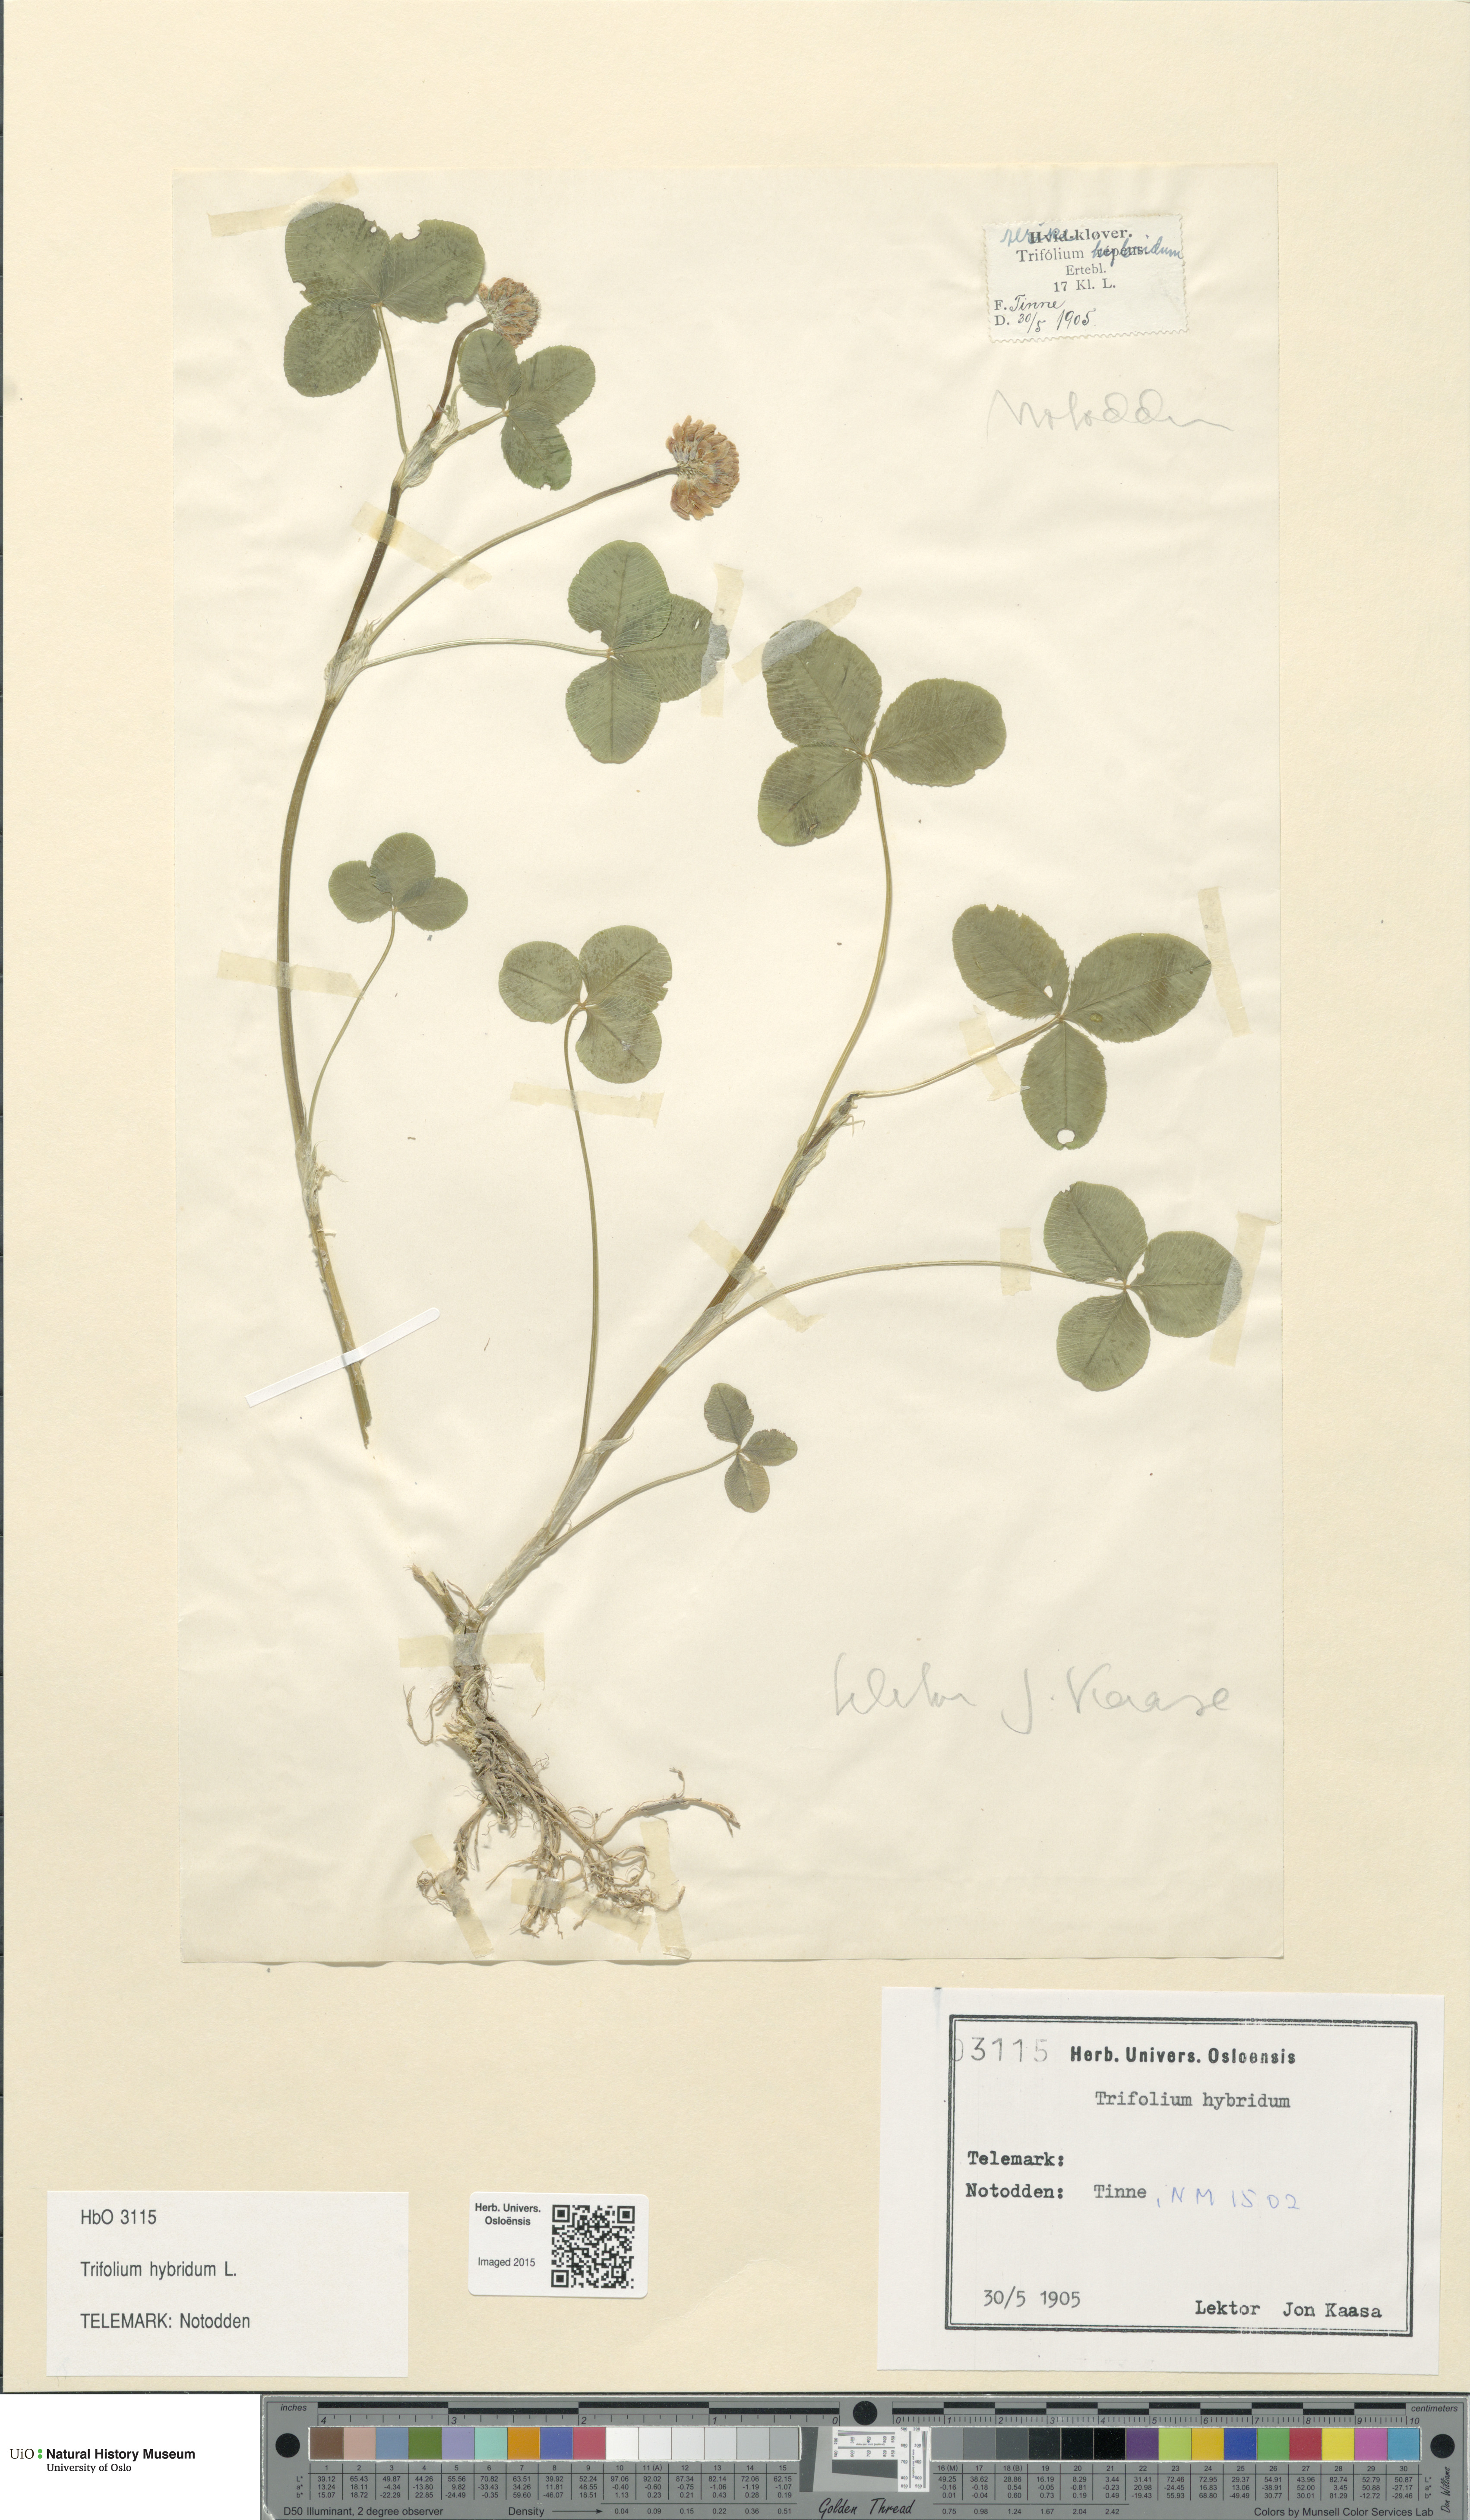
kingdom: Plantae
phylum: Tracheophyta
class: Magnoliopsida
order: Fabales
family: Fabaceae
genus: Trifolium
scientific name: Trifolium hybridum
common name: Alsike clover
